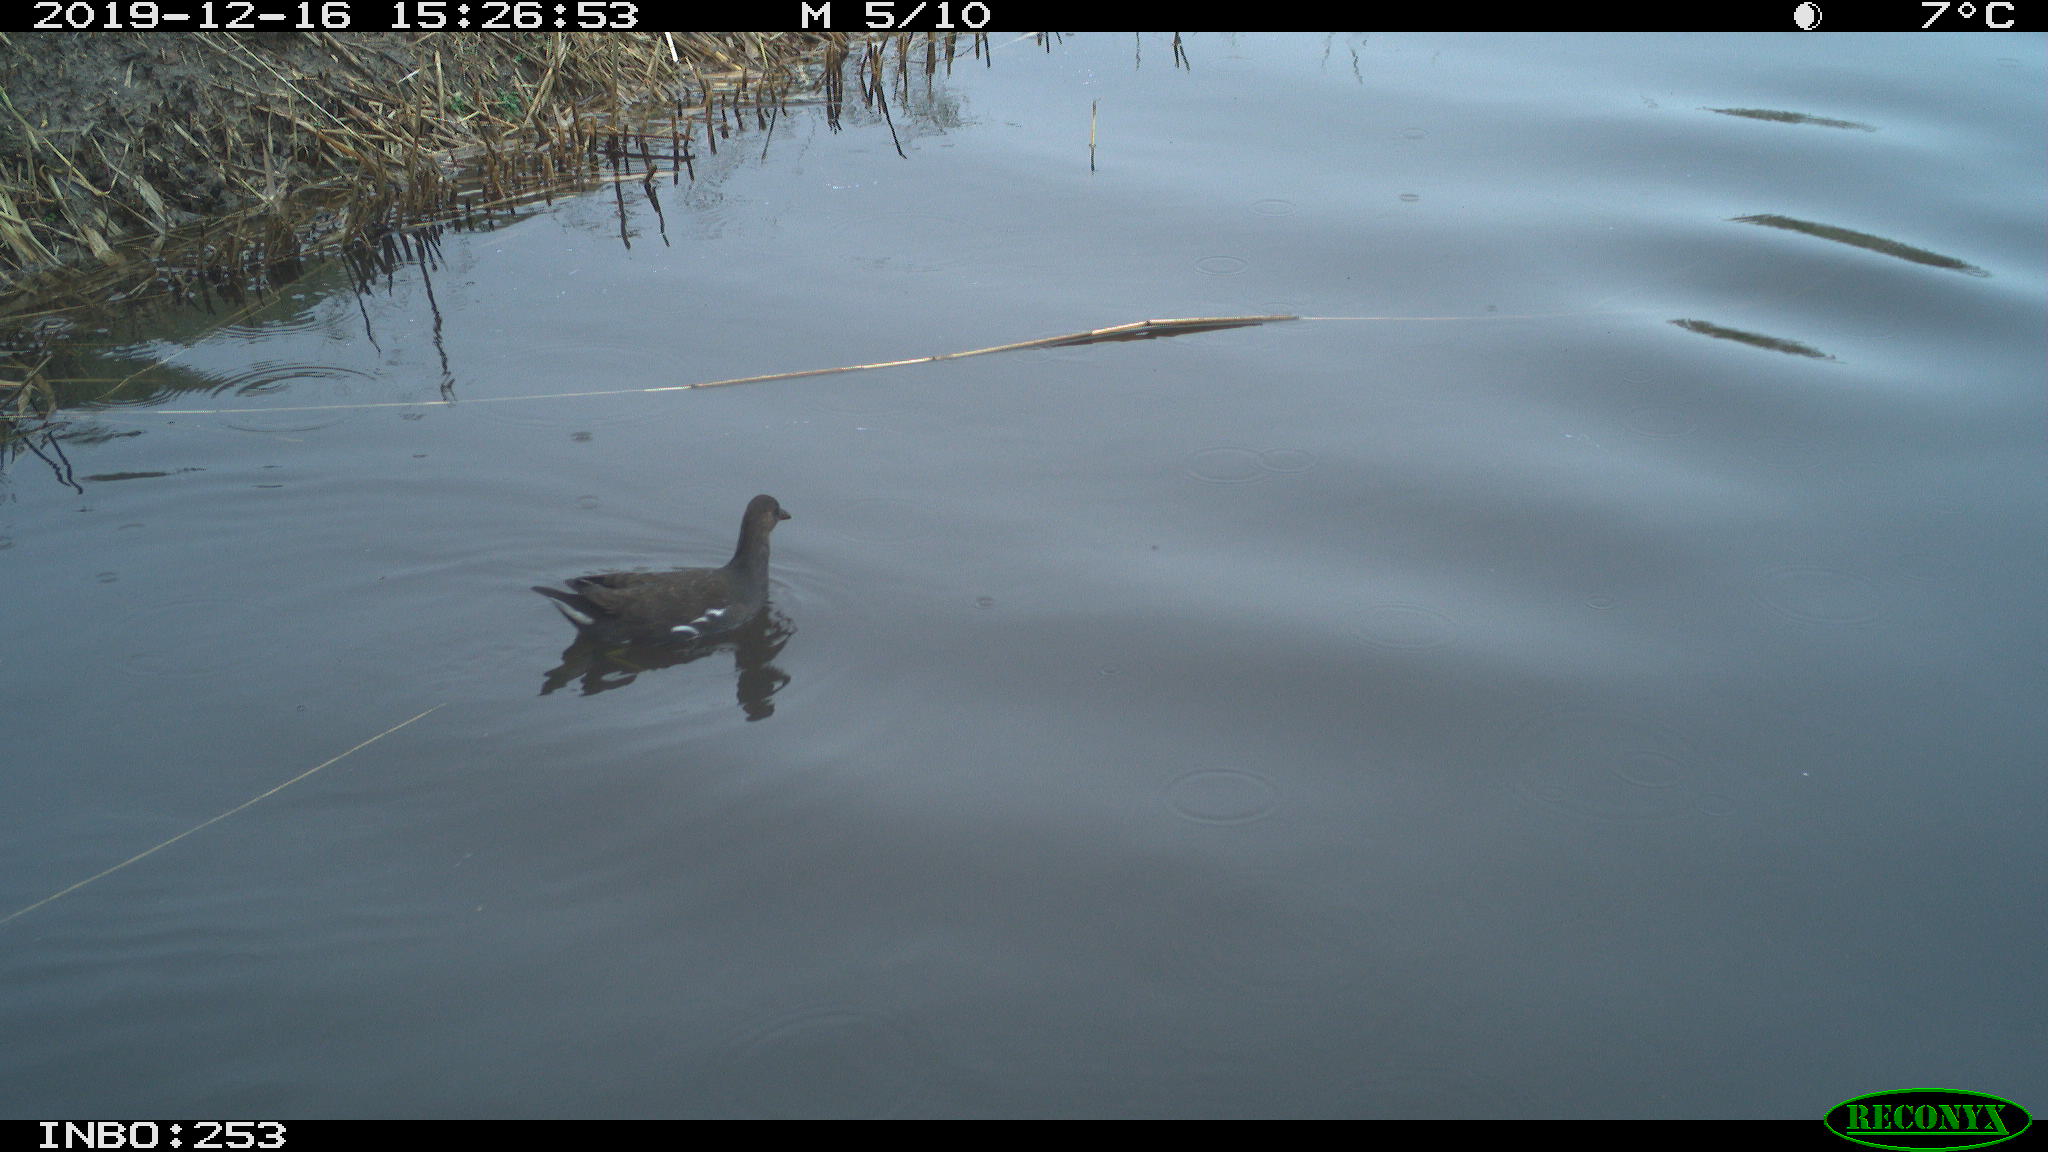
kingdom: Animalia
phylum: Chordata
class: Aves
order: Gruiformes
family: Rallidae
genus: Gallinula
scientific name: Gallinula chloropus
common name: Common moorhen
